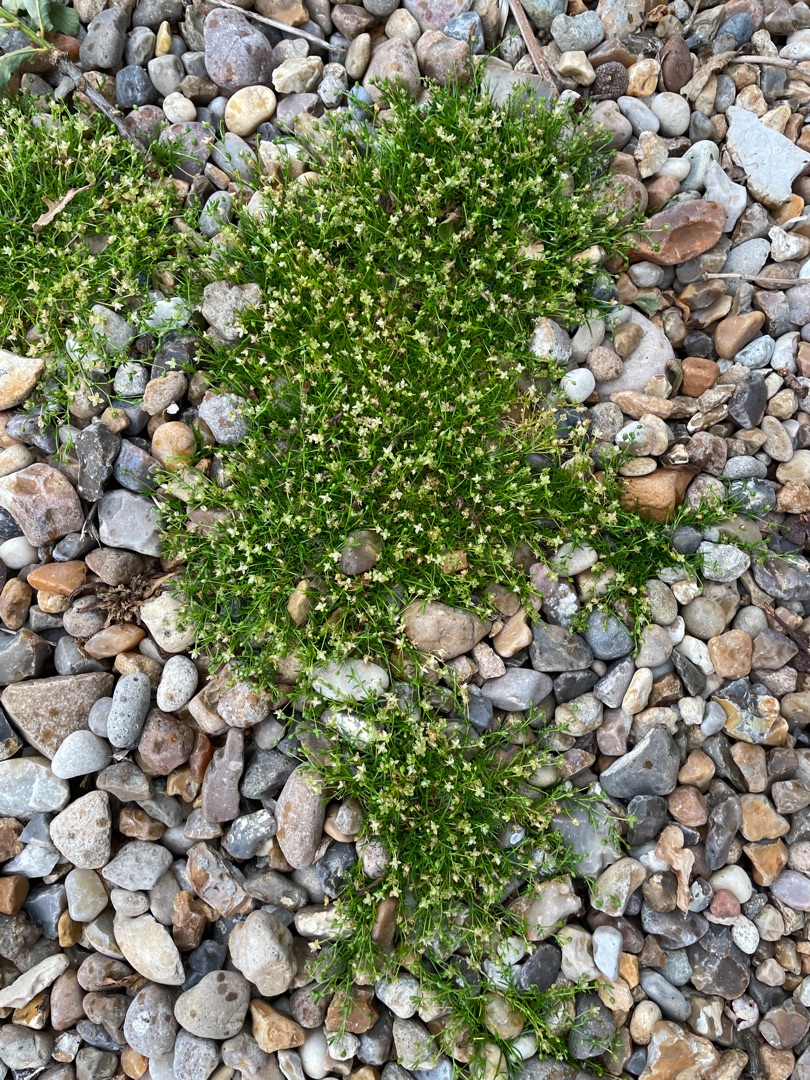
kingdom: Plantae
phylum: Tracheophyta
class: Magnoliopsida
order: Caryophyllales
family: Caryophyllaceae
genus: Sagina
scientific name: Sagina procumbens
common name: Almindelig firling
